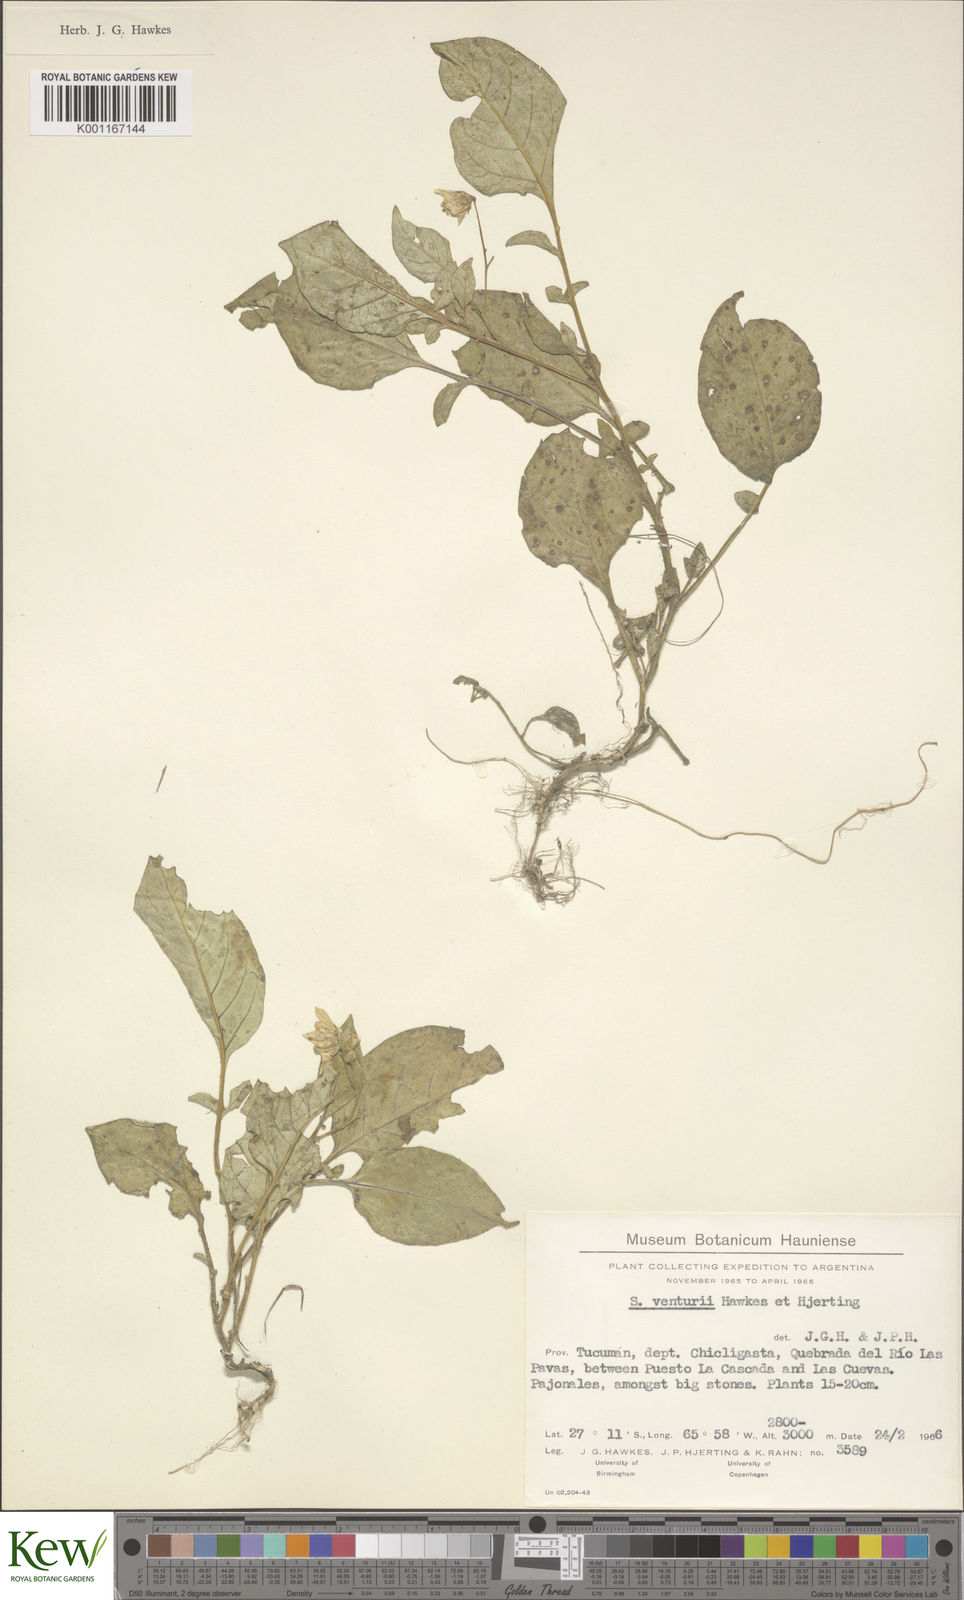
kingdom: Plantae
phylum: Tracheophyta
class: Magnoliopsida
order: Solanales
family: Solanaceae
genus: Solanum
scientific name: Solanum venturii
